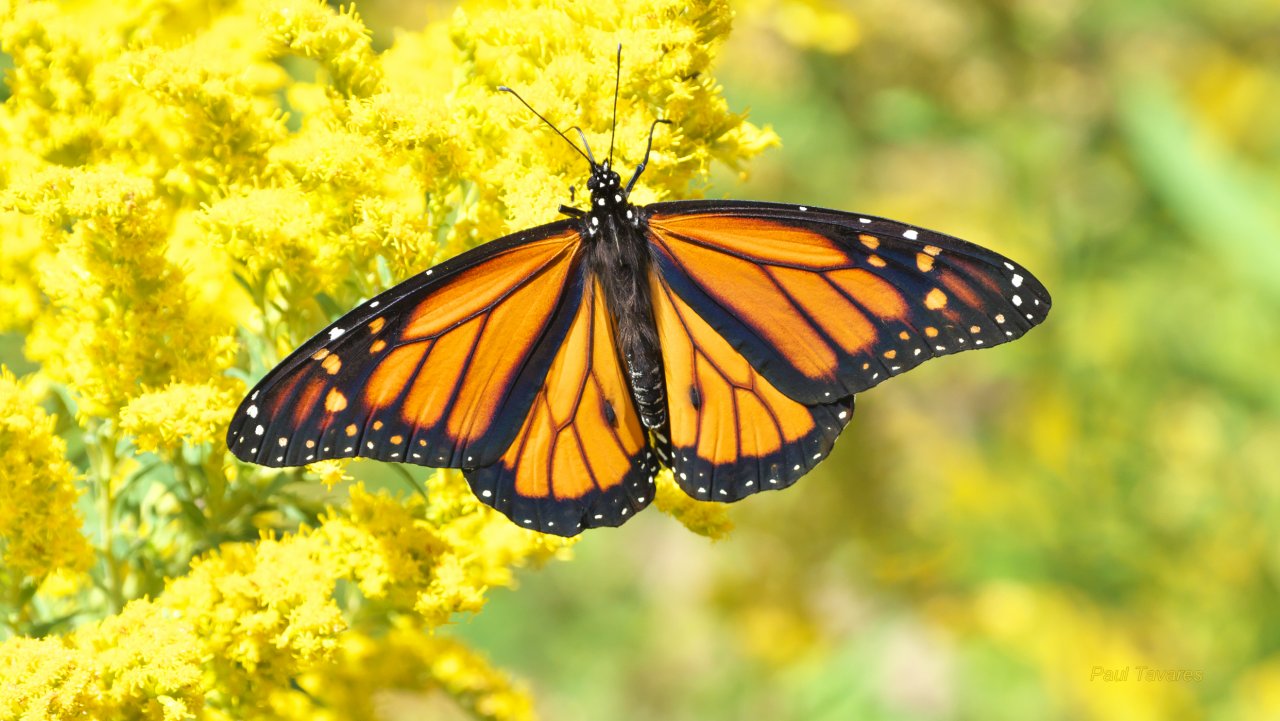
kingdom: Animalia
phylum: Arthropoda
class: Insecta
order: Lepidoptera
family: Nymphalidae
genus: Danaus
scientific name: Danaus plexippus
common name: Monarch
